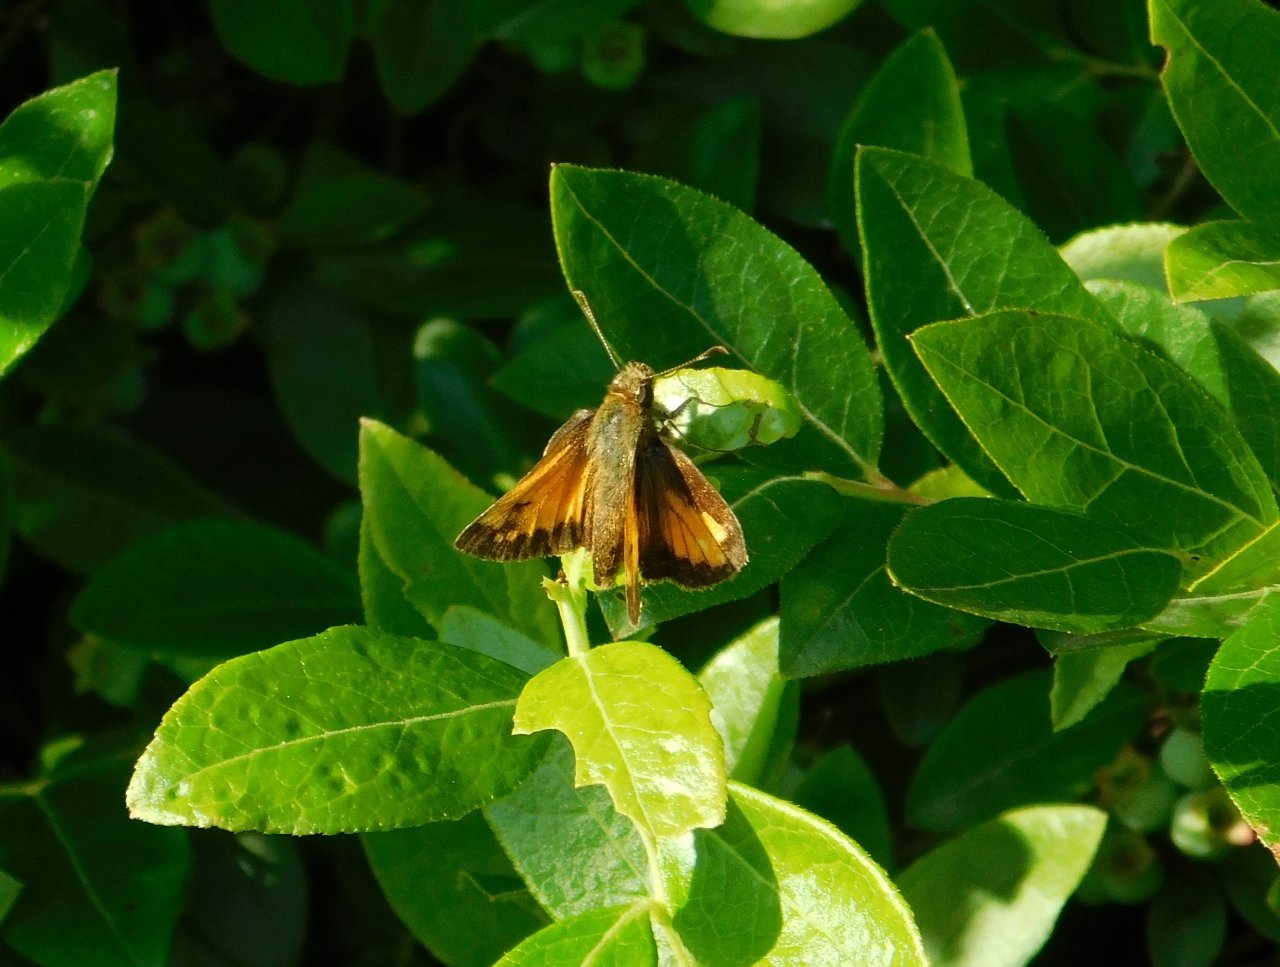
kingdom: Animalia
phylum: Arthropoda
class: Insecta
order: Lepidoptera
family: Hesperiidae
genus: Lon
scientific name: Lon hobomok
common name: Hobomok Skipper
